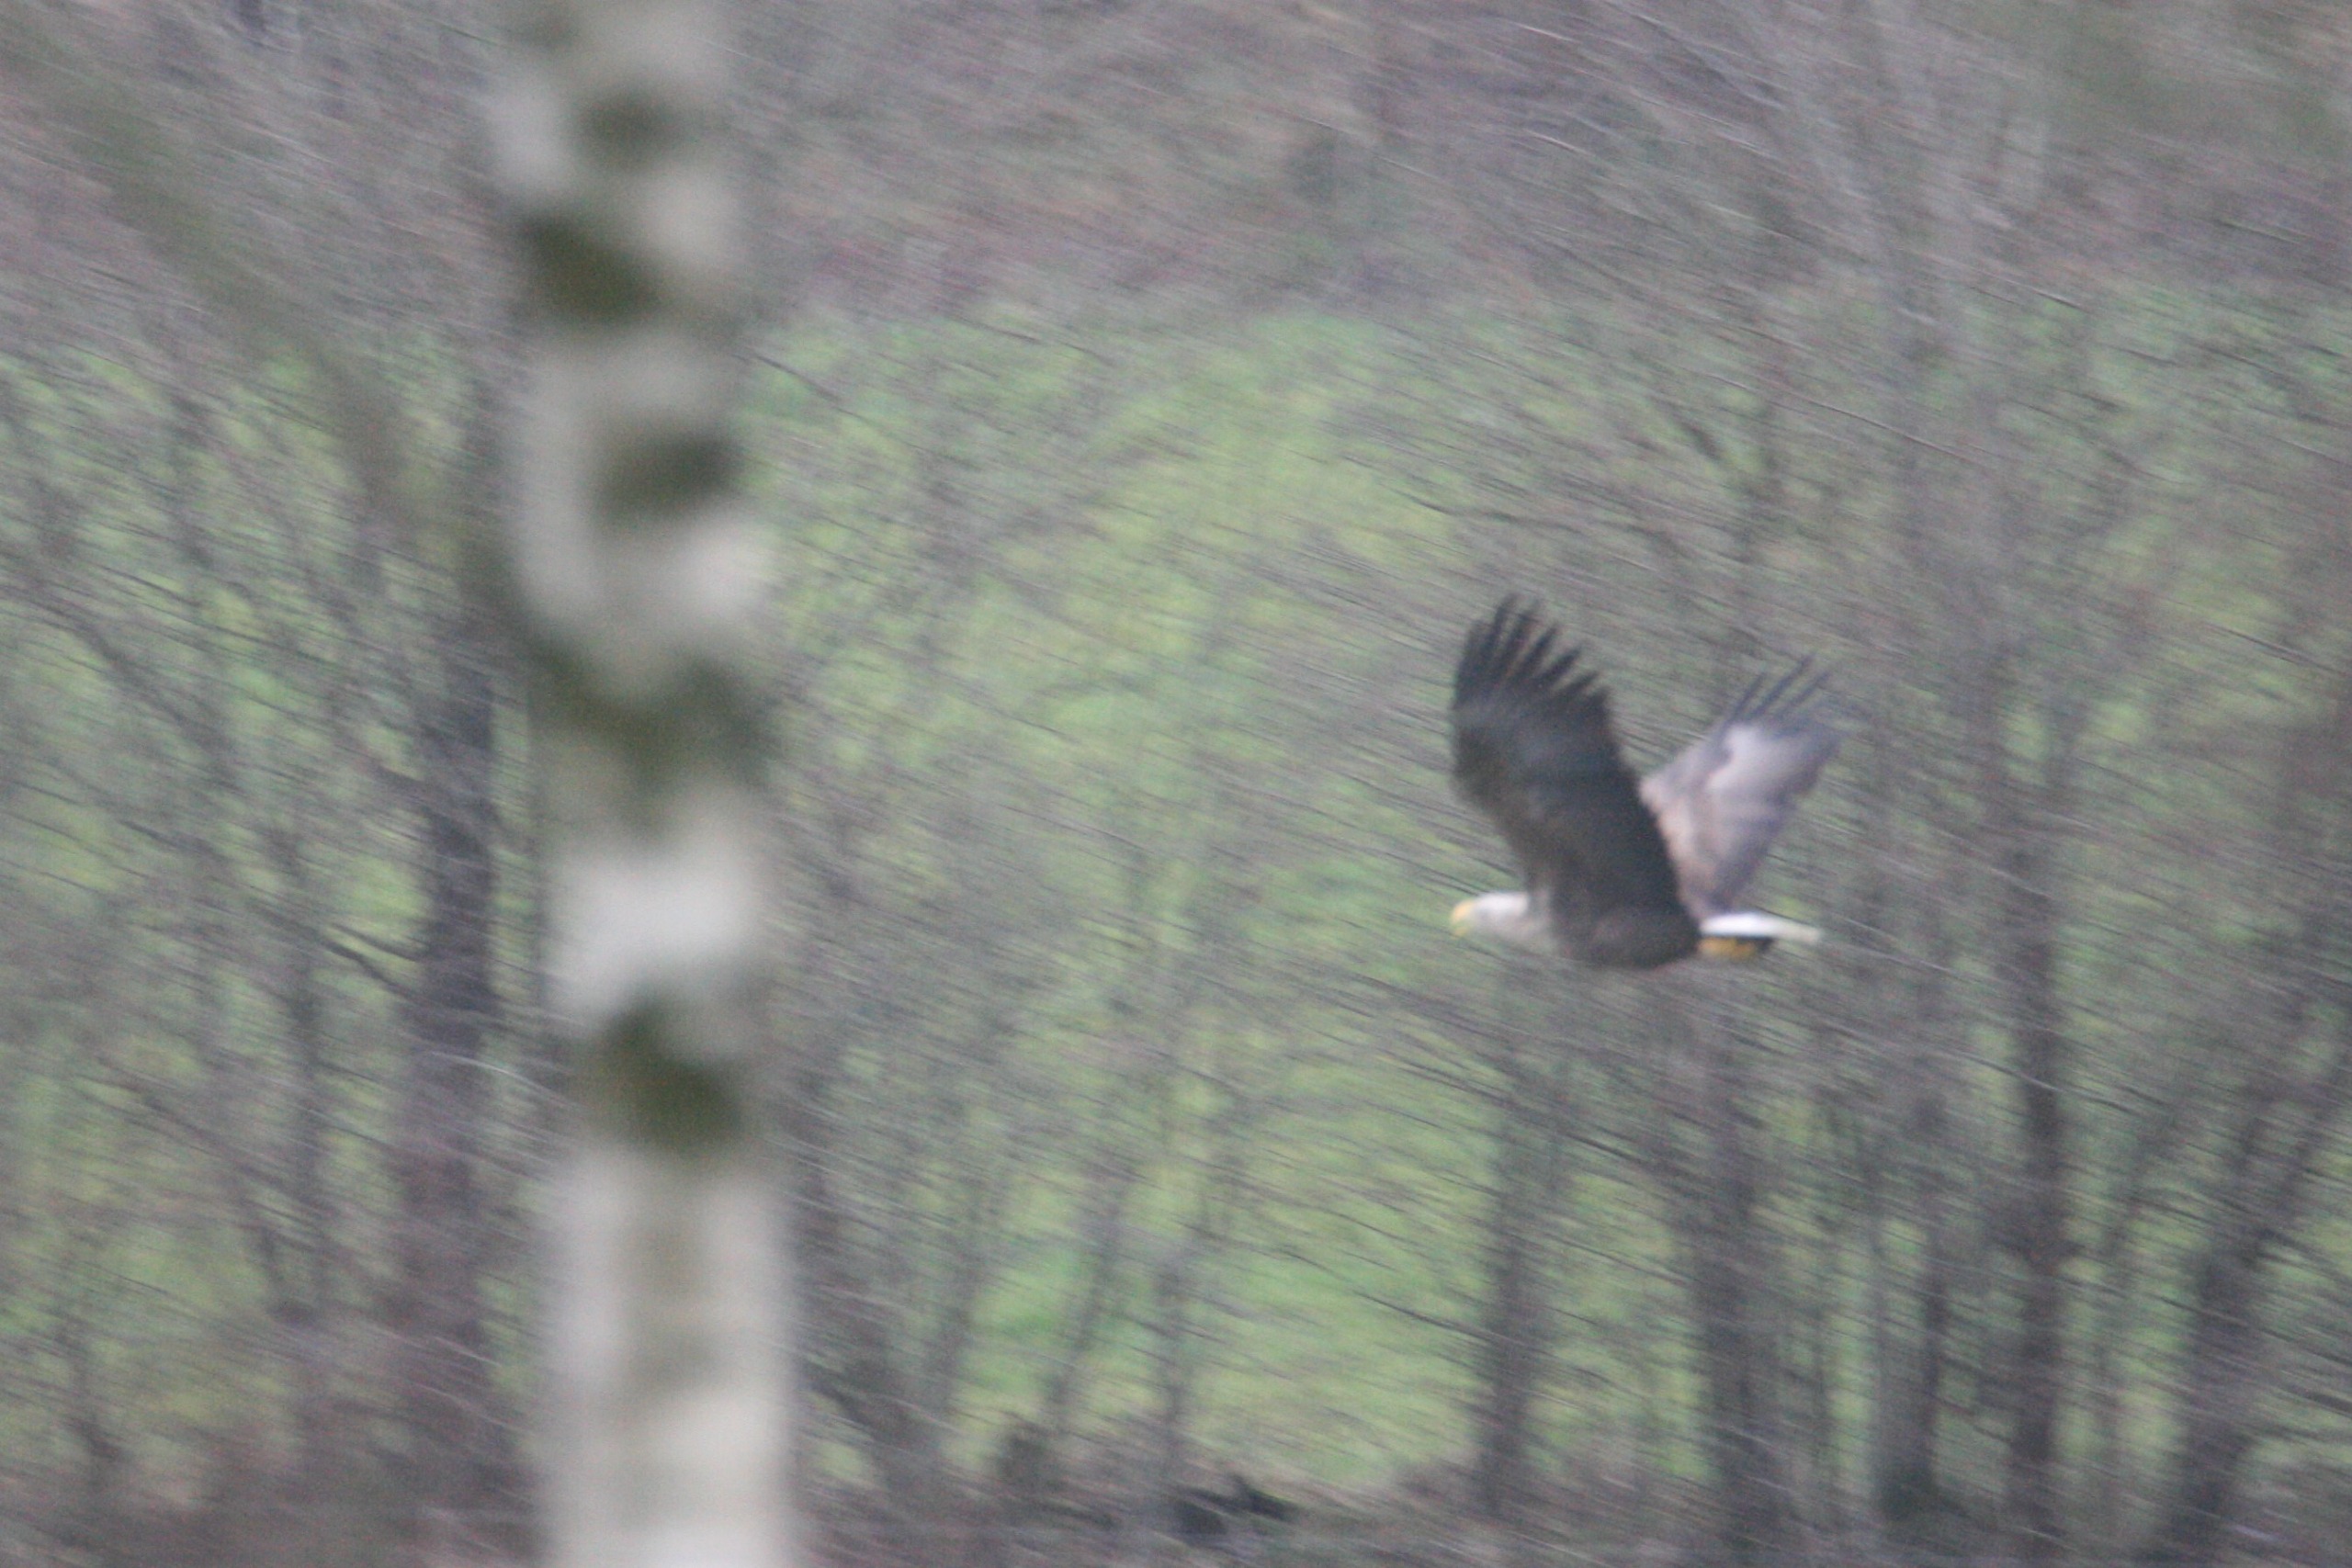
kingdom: Animalia
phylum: Chordata
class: Aves
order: Accipitriformes
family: Accipitridae
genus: Haliaeetus
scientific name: Haliaeetus albicilla
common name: Havørn
